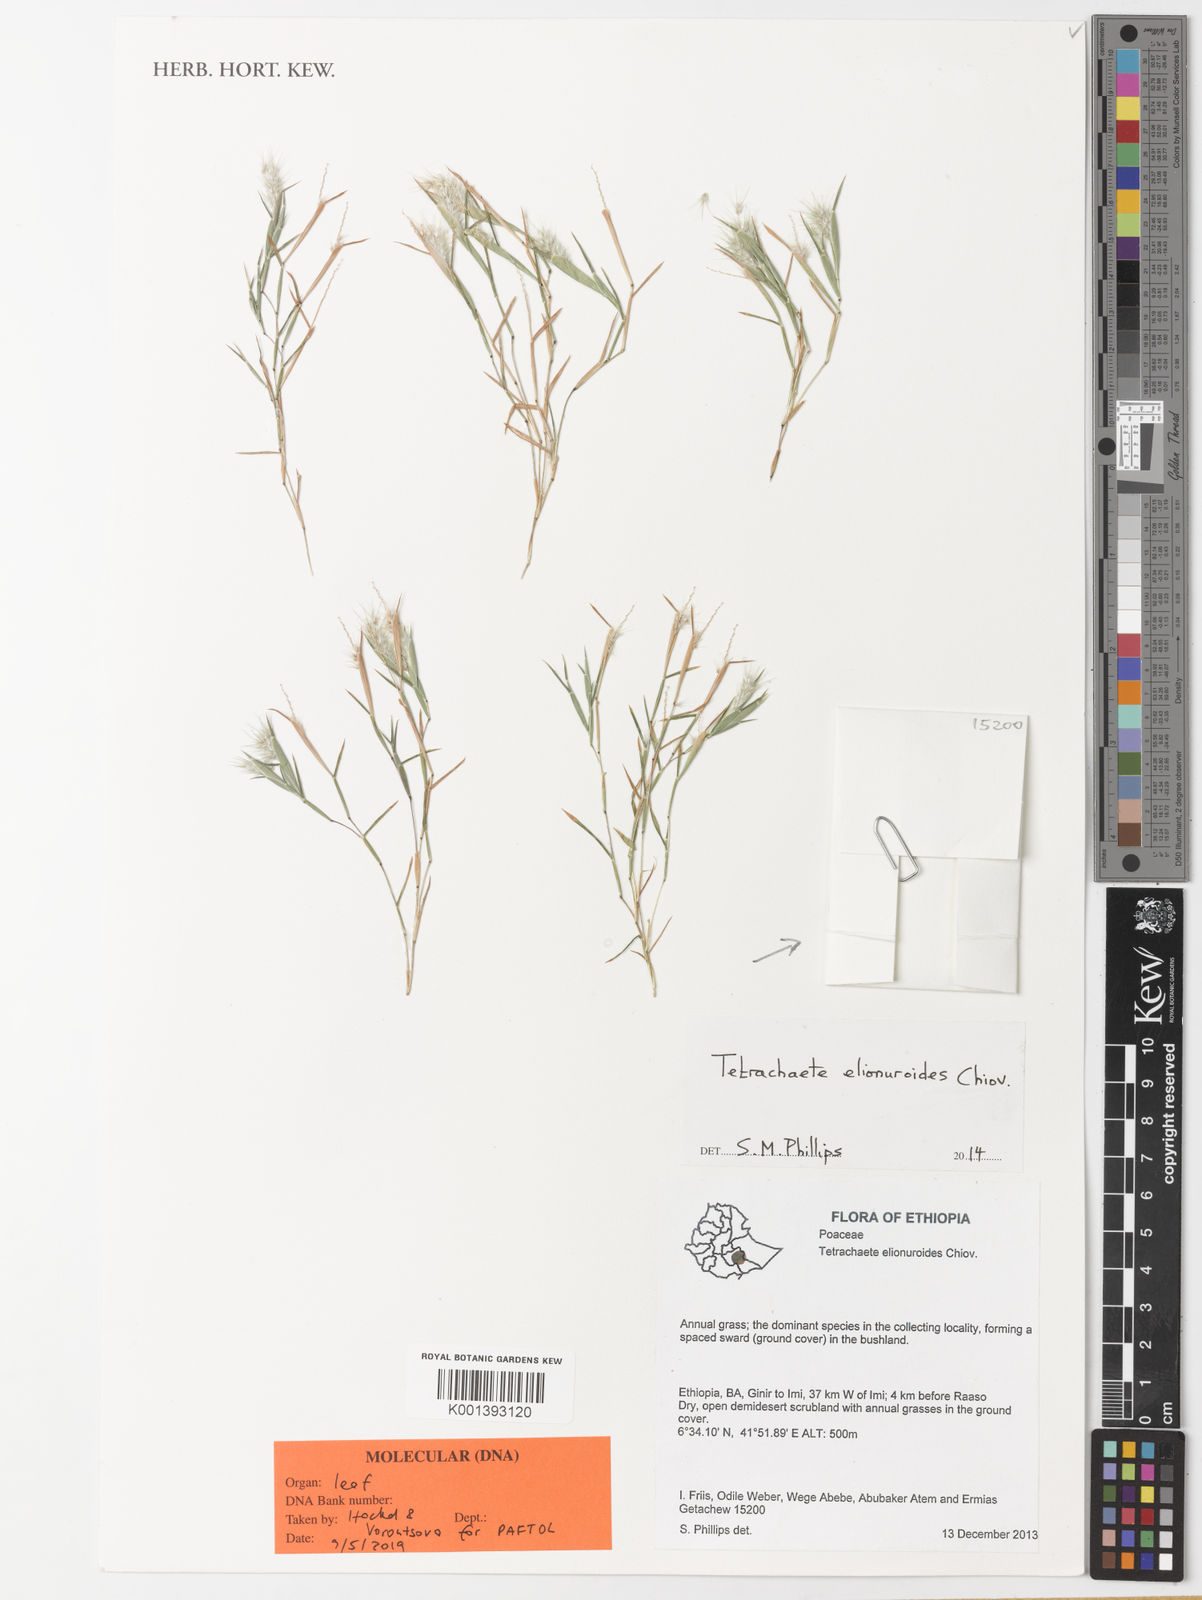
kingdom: Plantae
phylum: Tracheophyta
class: Liliopsida
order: Poales
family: Poaceae
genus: Tetrachaete
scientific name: Tetrachaete elionuroides
